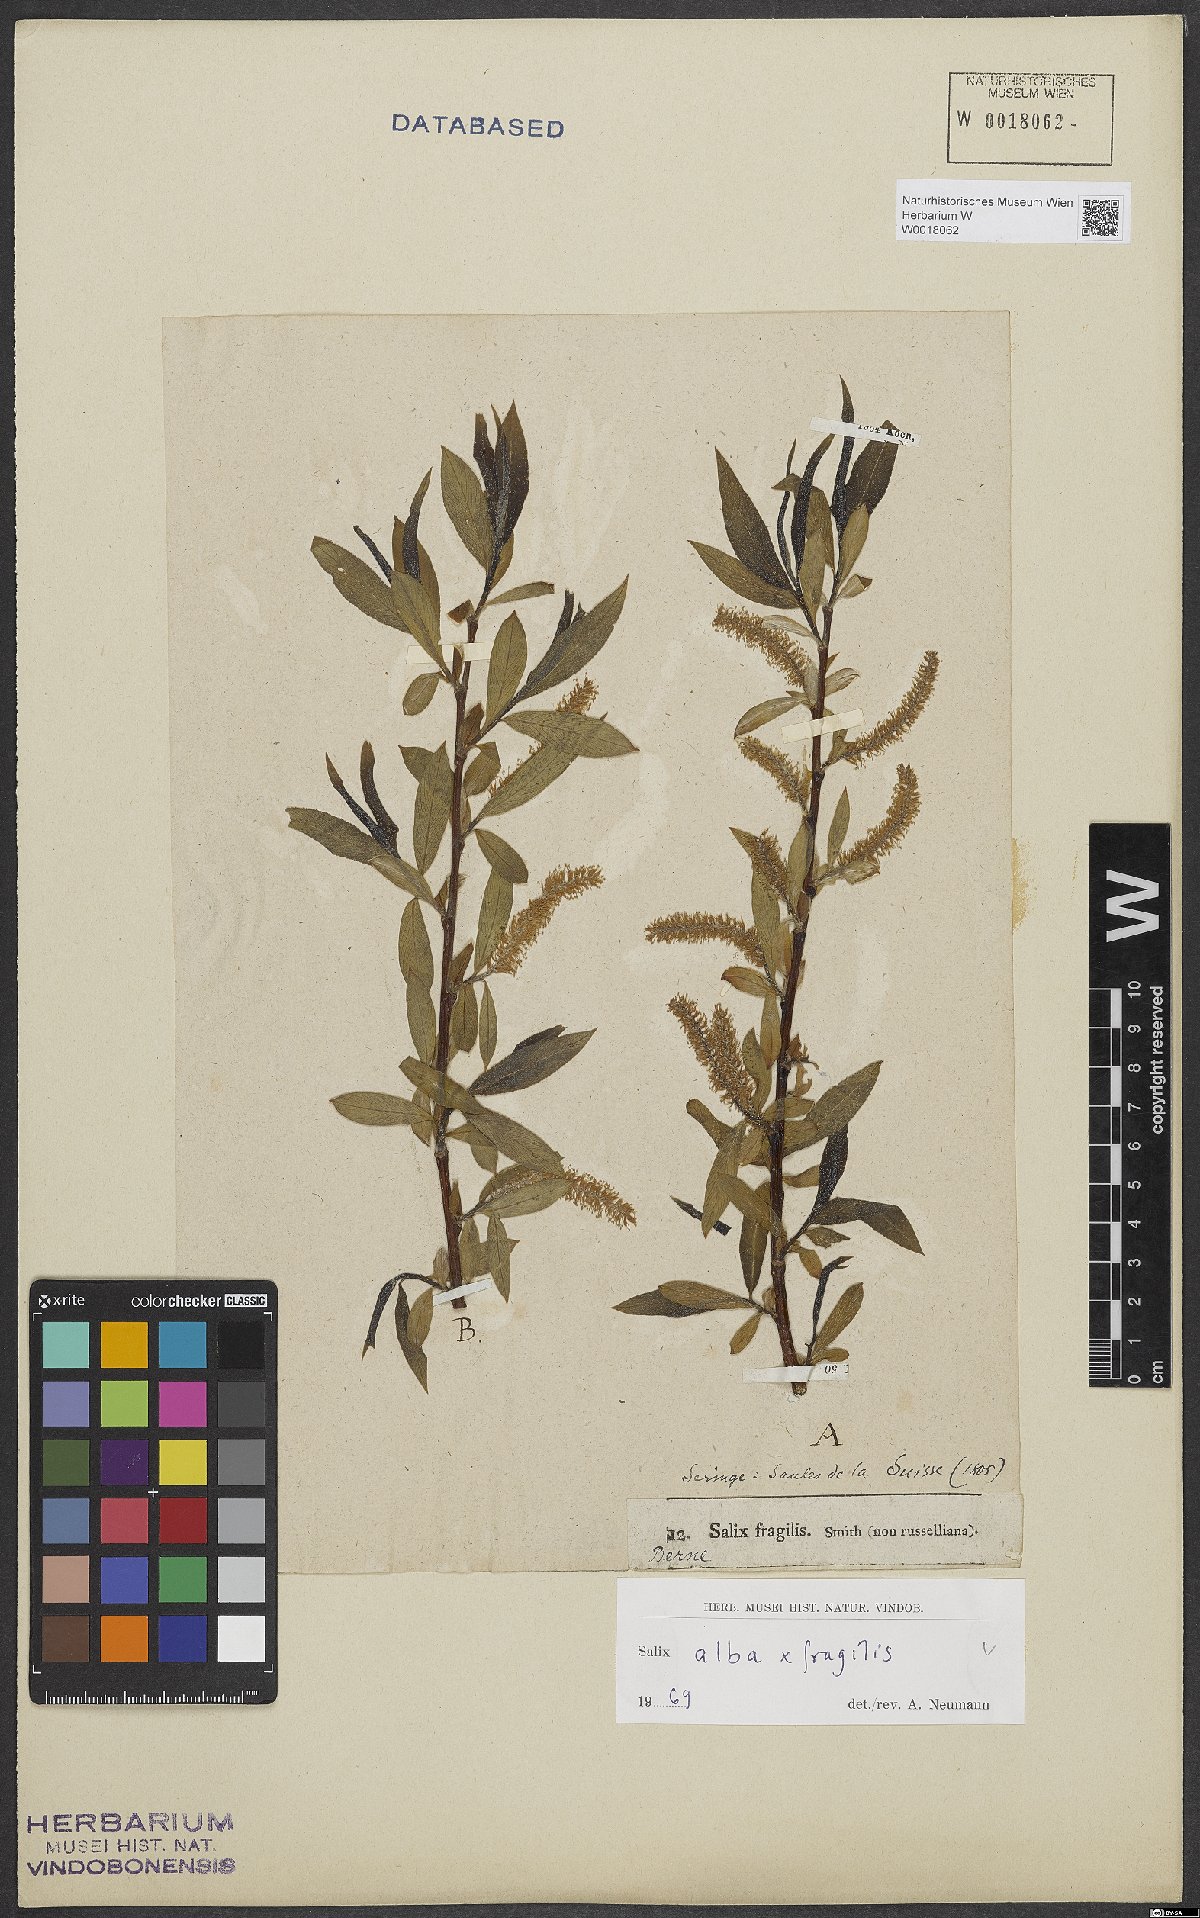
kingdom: Plantae
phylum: Tracheophyta
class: Magnoliopsida
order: Malpighiales
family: Salicaceae
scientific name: Salicaceae
